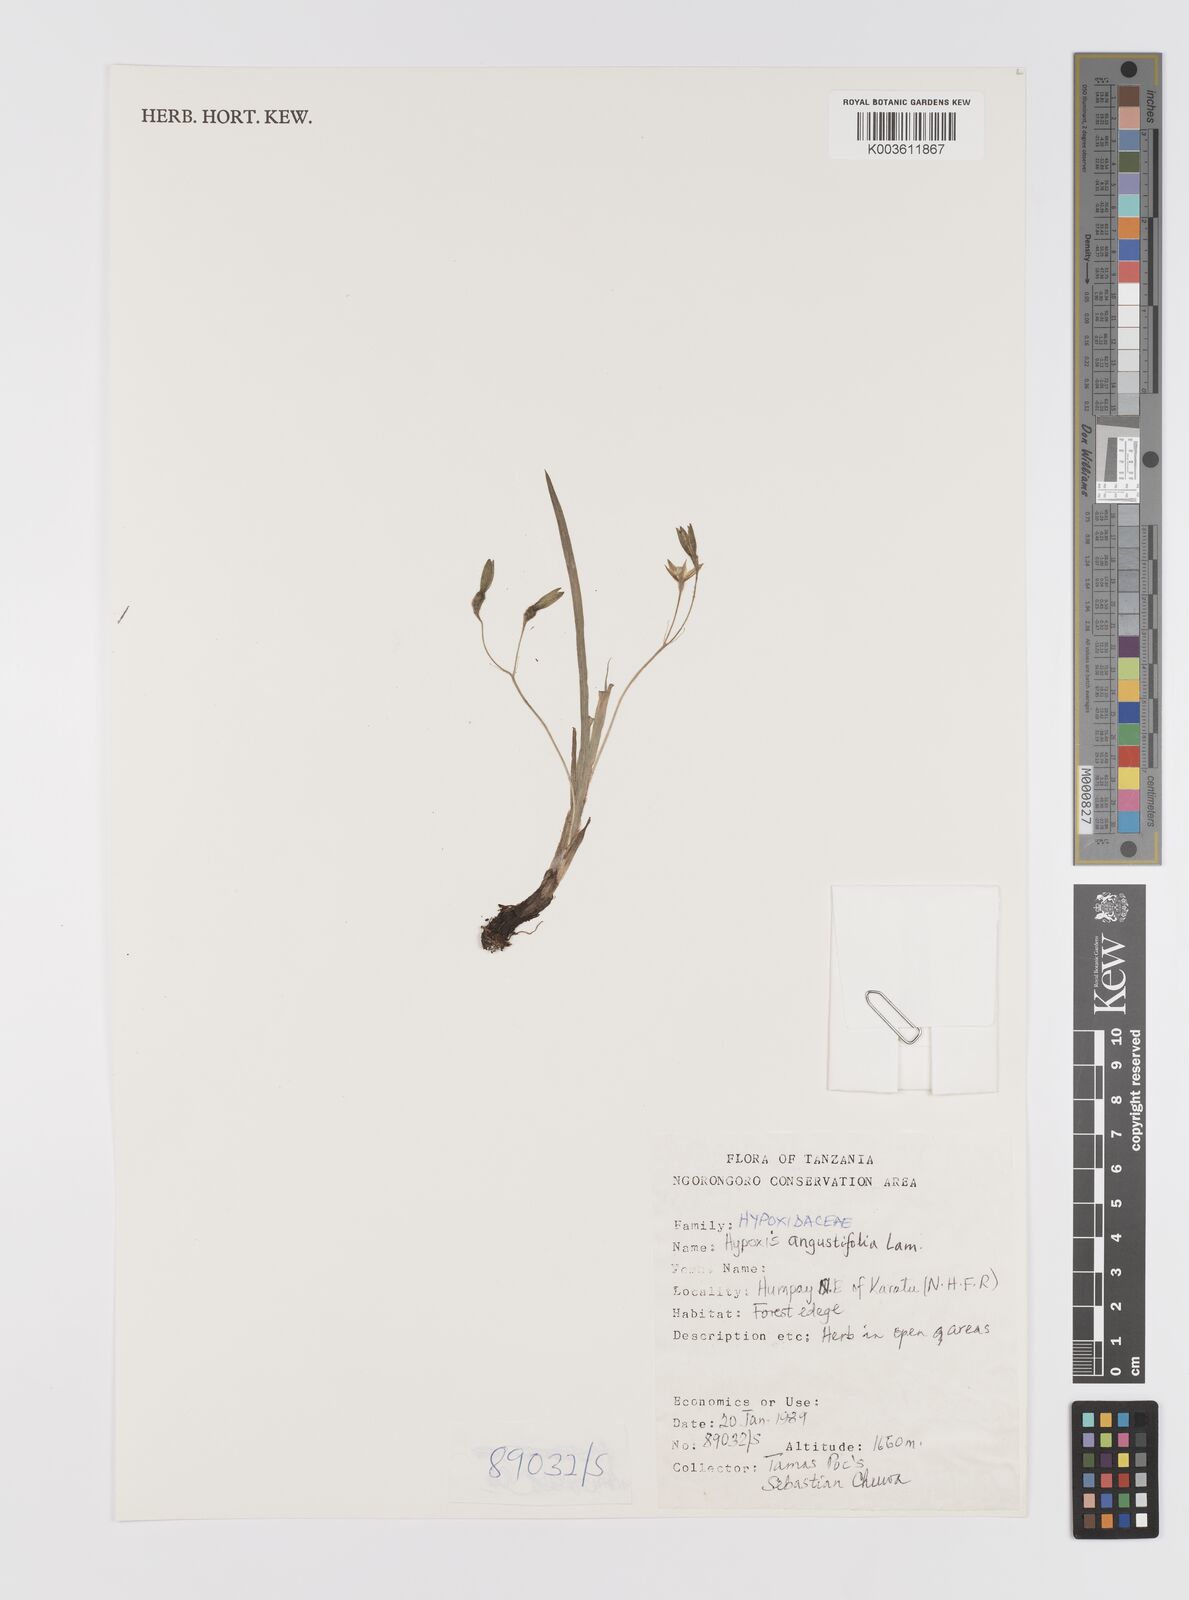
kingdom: Plantae
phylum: Tracheophyta
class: Liliopsida
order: Asparagales
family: Hypoxidaceae
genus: Hypoxis
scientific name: Hypoxis angustifolia
